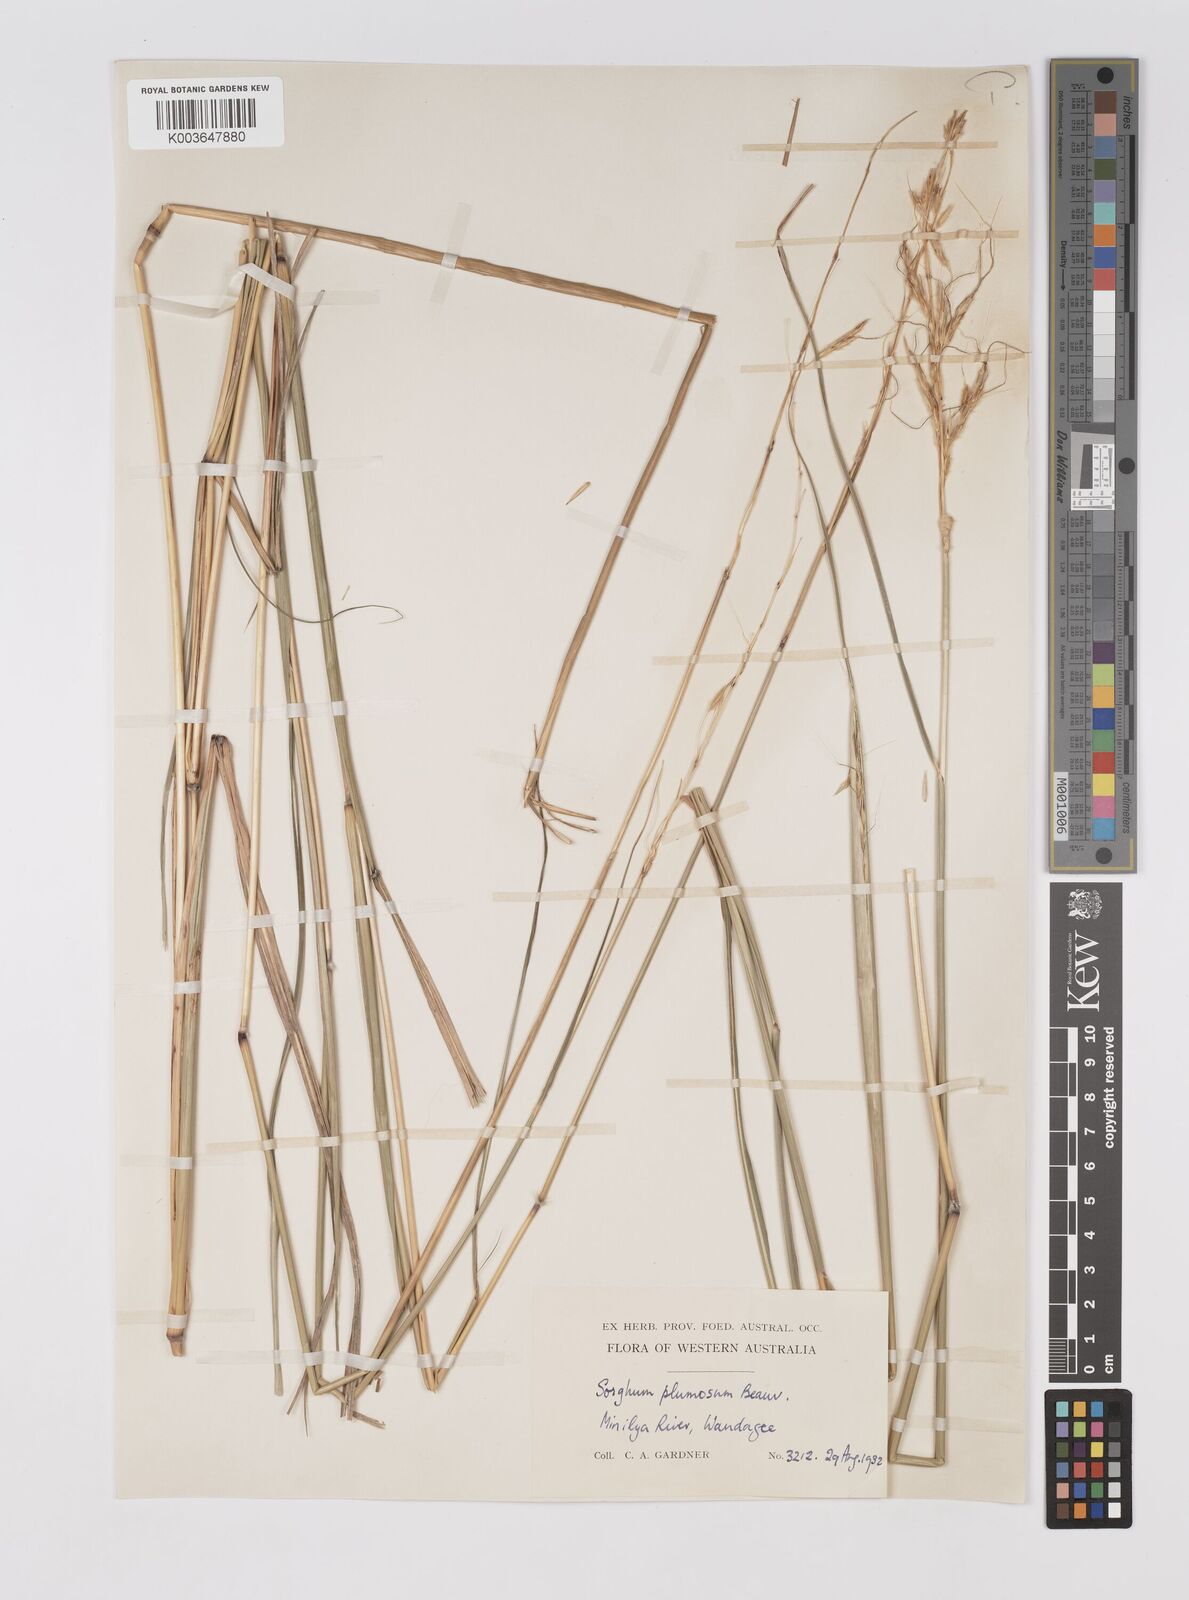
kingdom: Plantae
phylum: Tracheophyta
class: Liliopsida
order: Poales
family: Poaceae
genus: Sarga
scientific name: Sarga plumosa
